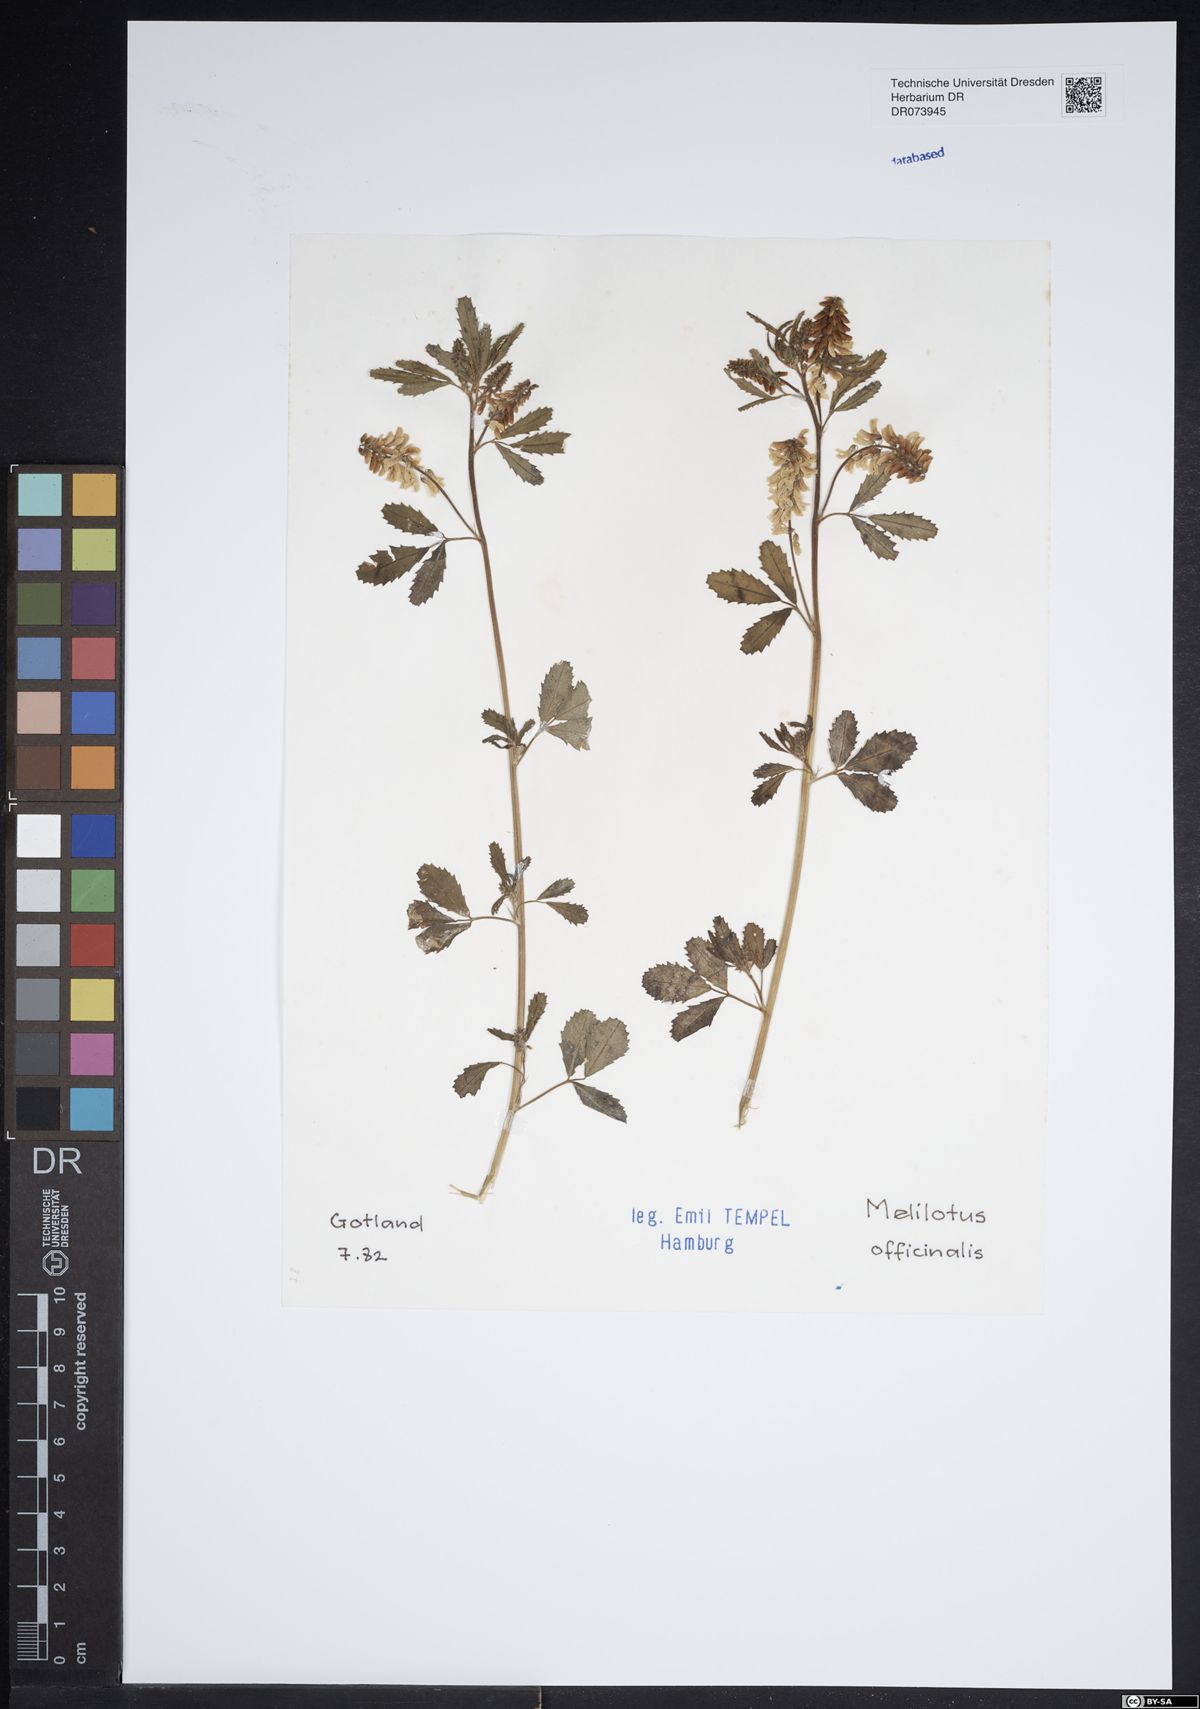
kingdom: Plantae
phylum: Tracheophyta
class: Magnoliopsida
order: Fabales
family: Fabaceae
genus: Melilotus
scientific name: Melilotus officinalis
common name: Sweetclover
